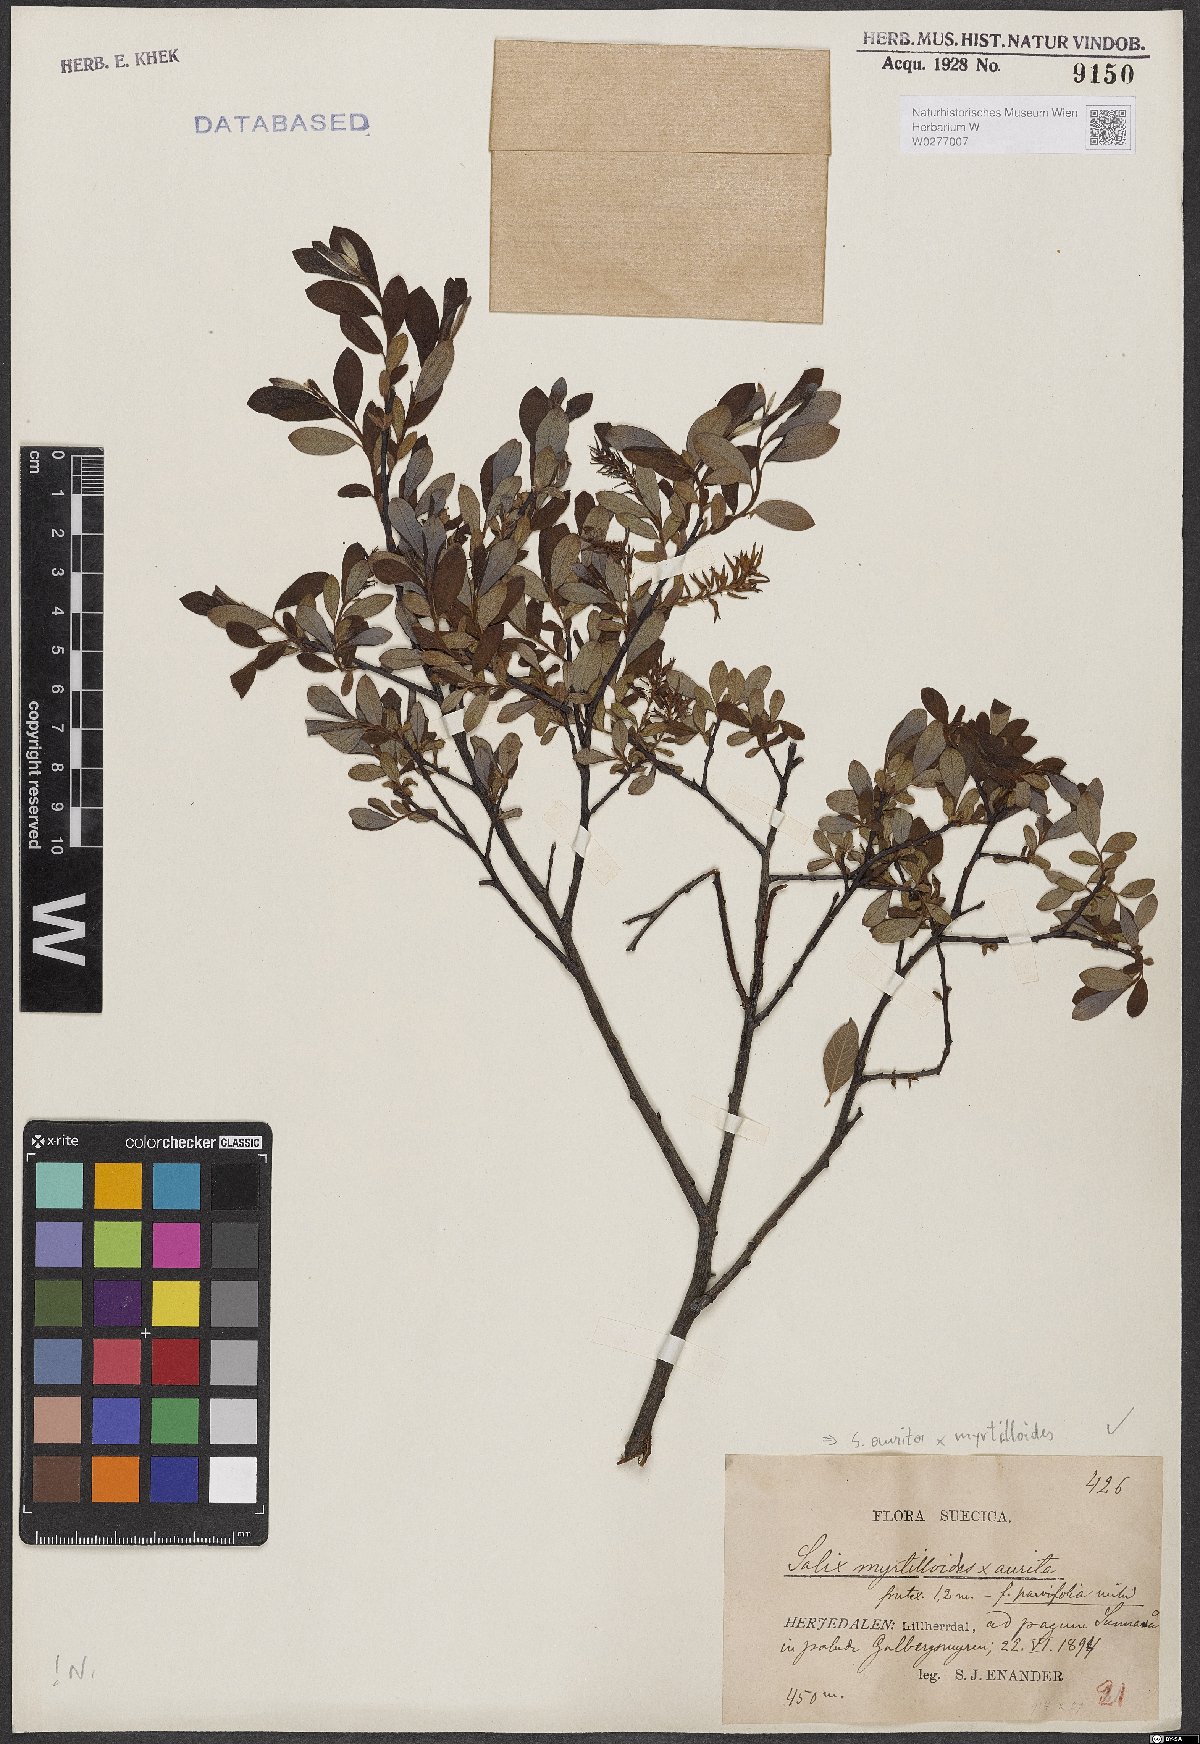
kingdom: Plantae
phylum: Tracheophyta
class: Magnoliopsida
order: Malpighiales
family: Salicaceae
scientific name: Salicaceae
